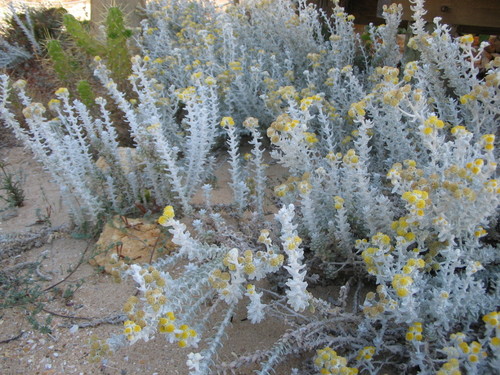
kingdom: Plantae
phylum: Tracheophyta
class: Magnoliopsida
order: Asterales
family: Asteraceae
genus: Achillea
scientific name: Achillea maritima
